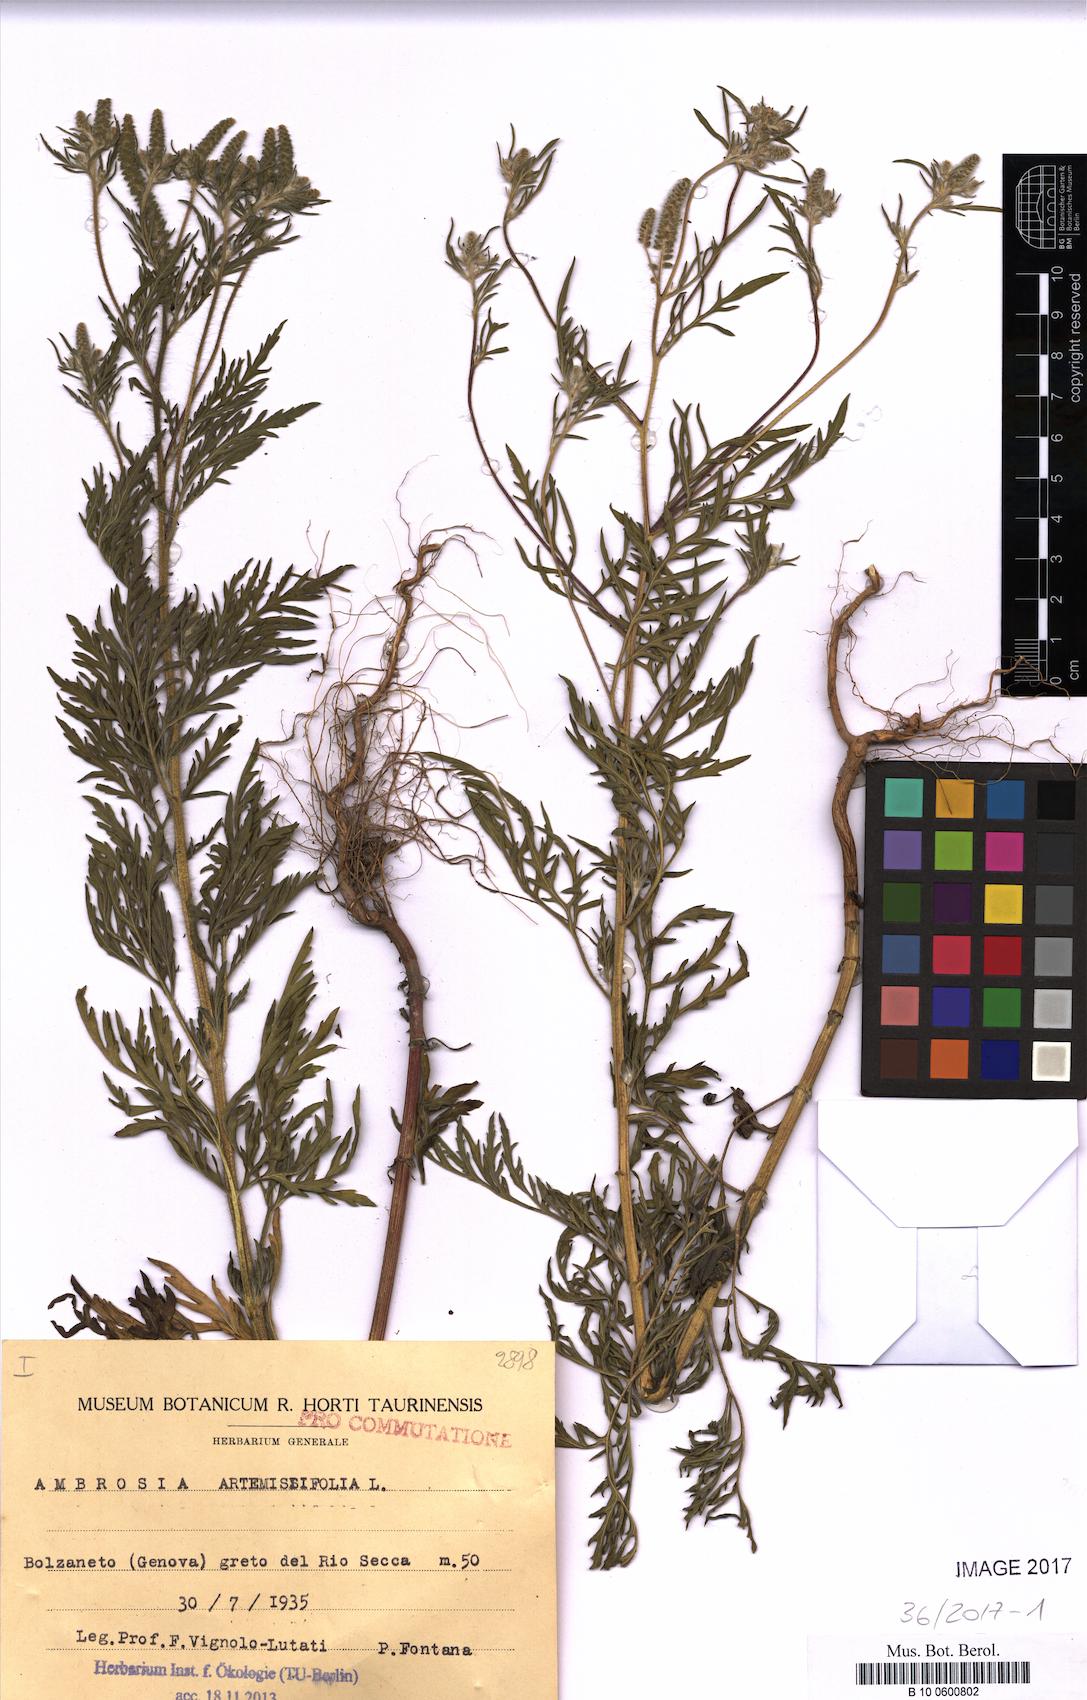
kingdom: Plantae
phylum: Tracheophyta
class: Magnoliopsida
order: Asterales
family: Asteraceae
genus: Ambrosia
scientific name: Ambrosia artemisiifolia
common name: Annual ragweed
